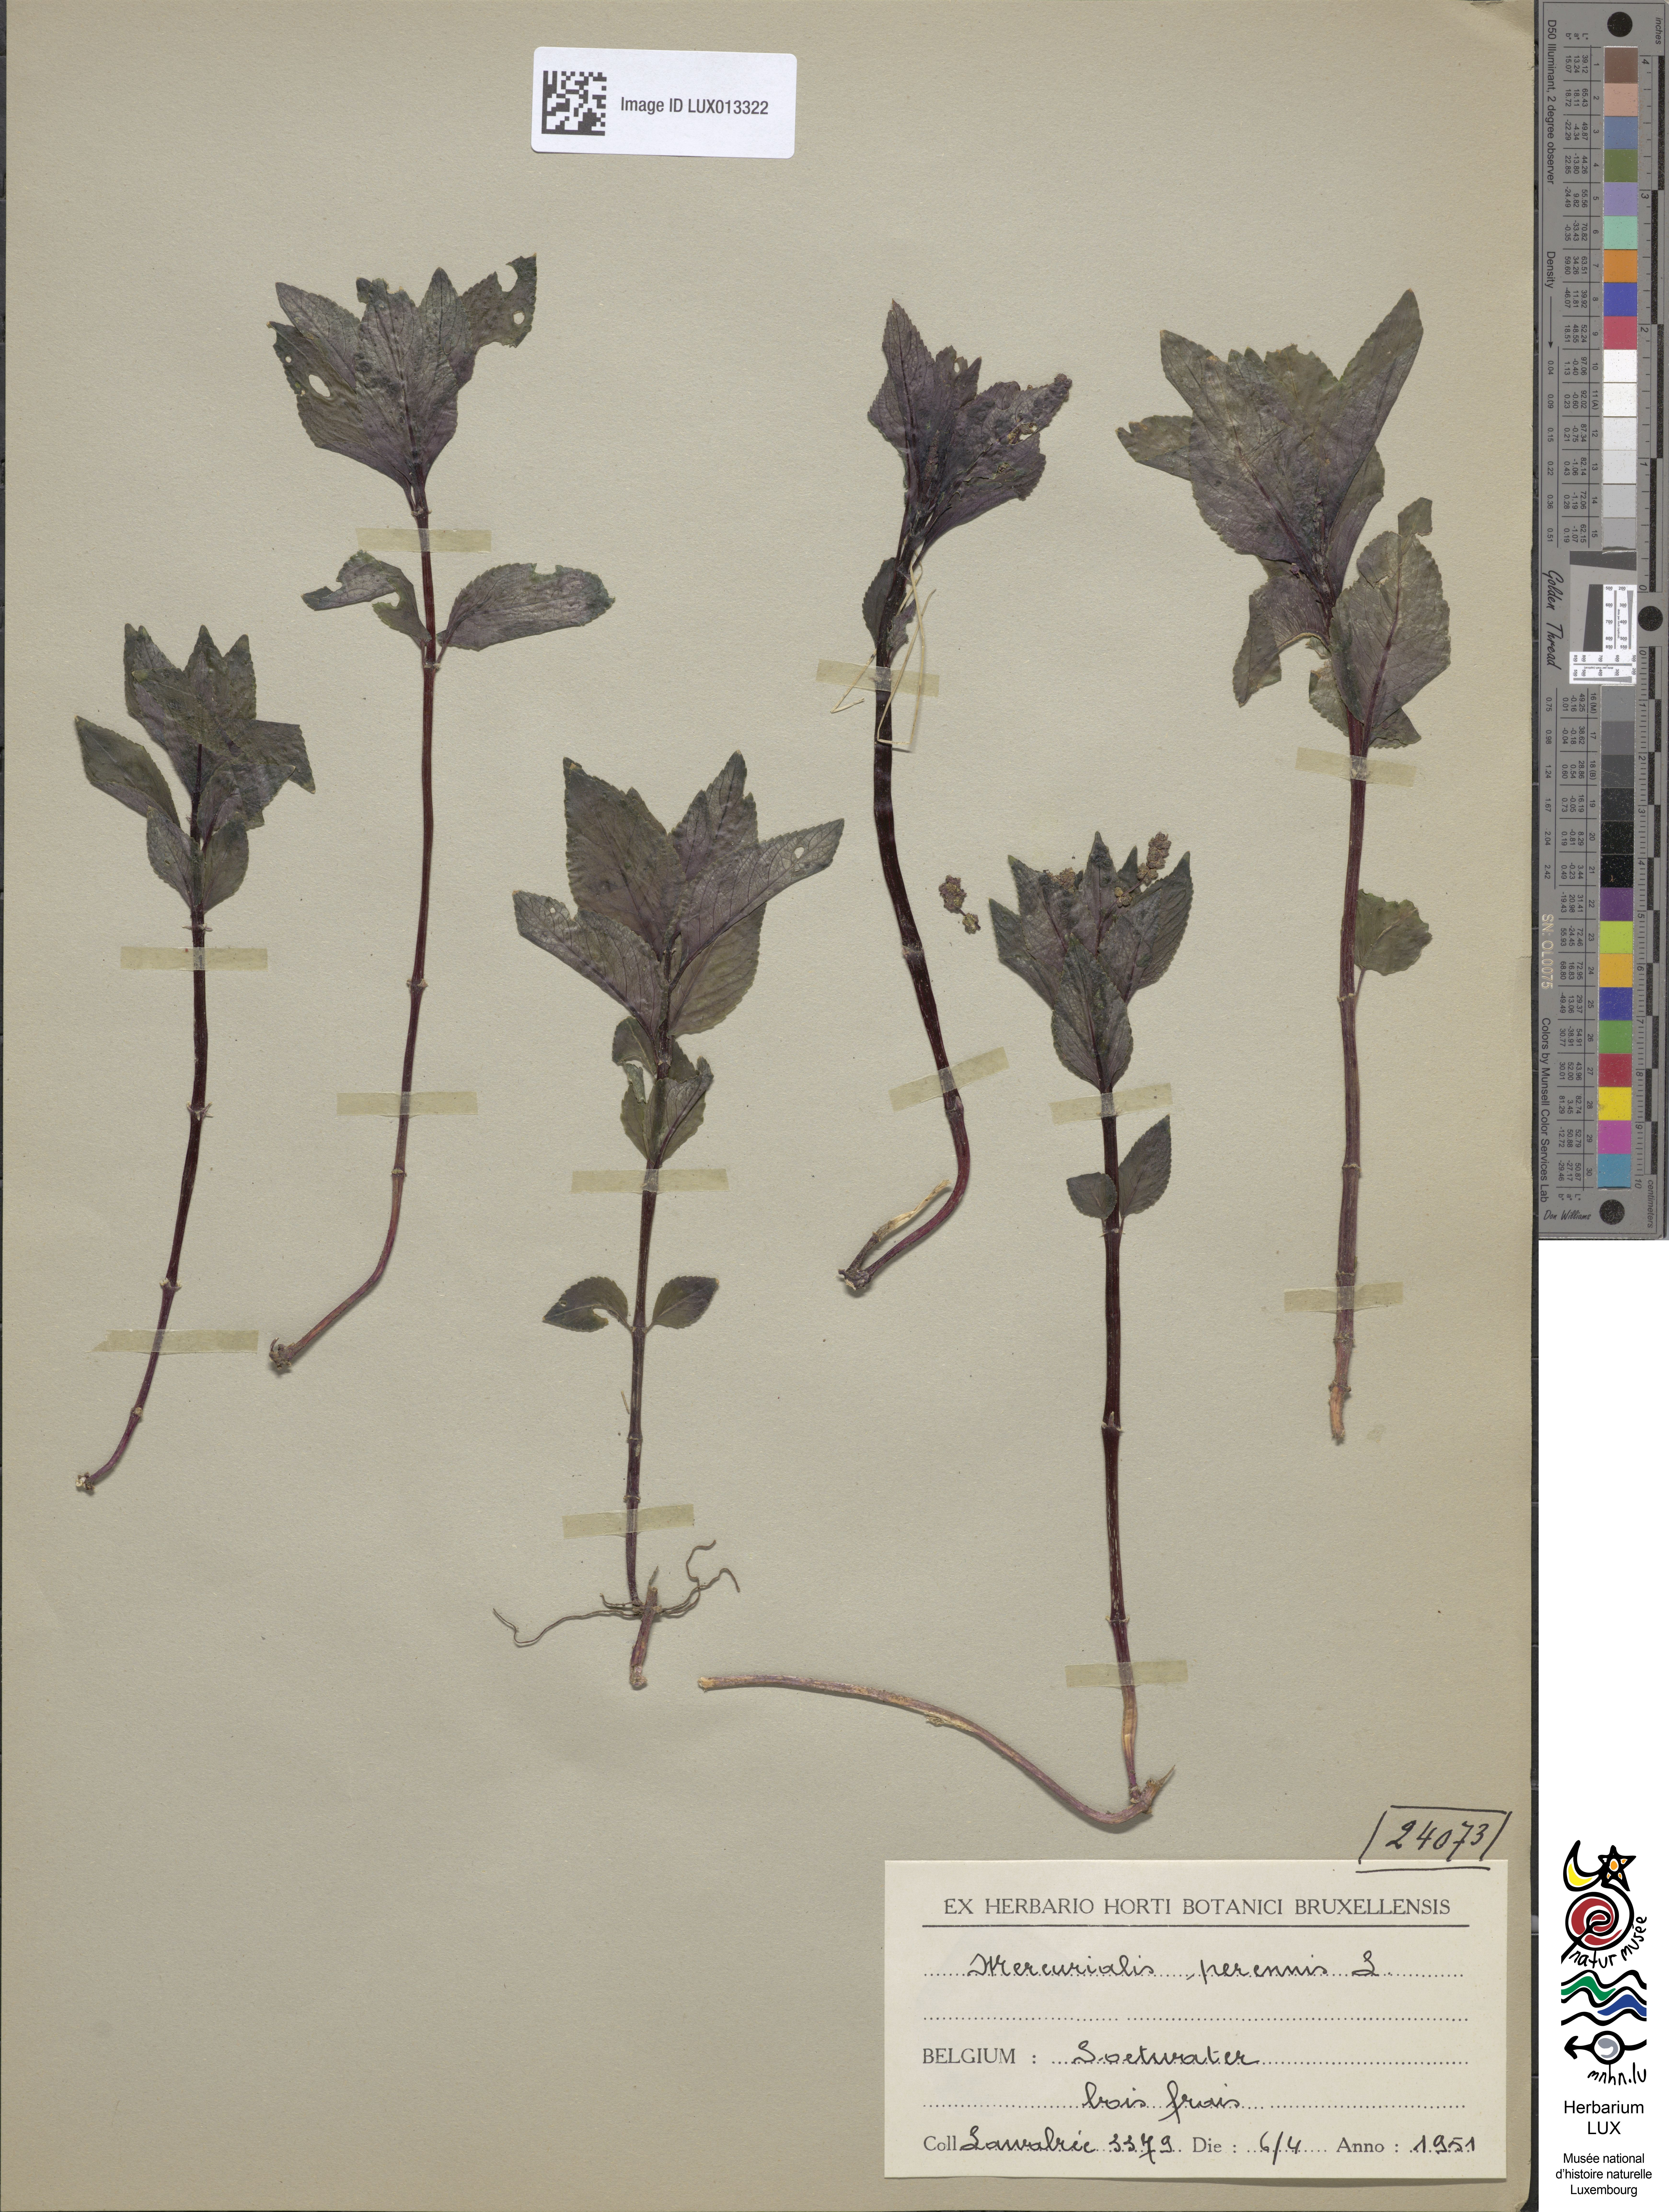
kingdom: Plantae
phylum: Tracheophyta
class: Magnoliopsida
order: Malpighiales
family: Euphorbiaceae
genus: Mercurialis
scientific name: Mercurialis perennis
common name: Dog mercury
